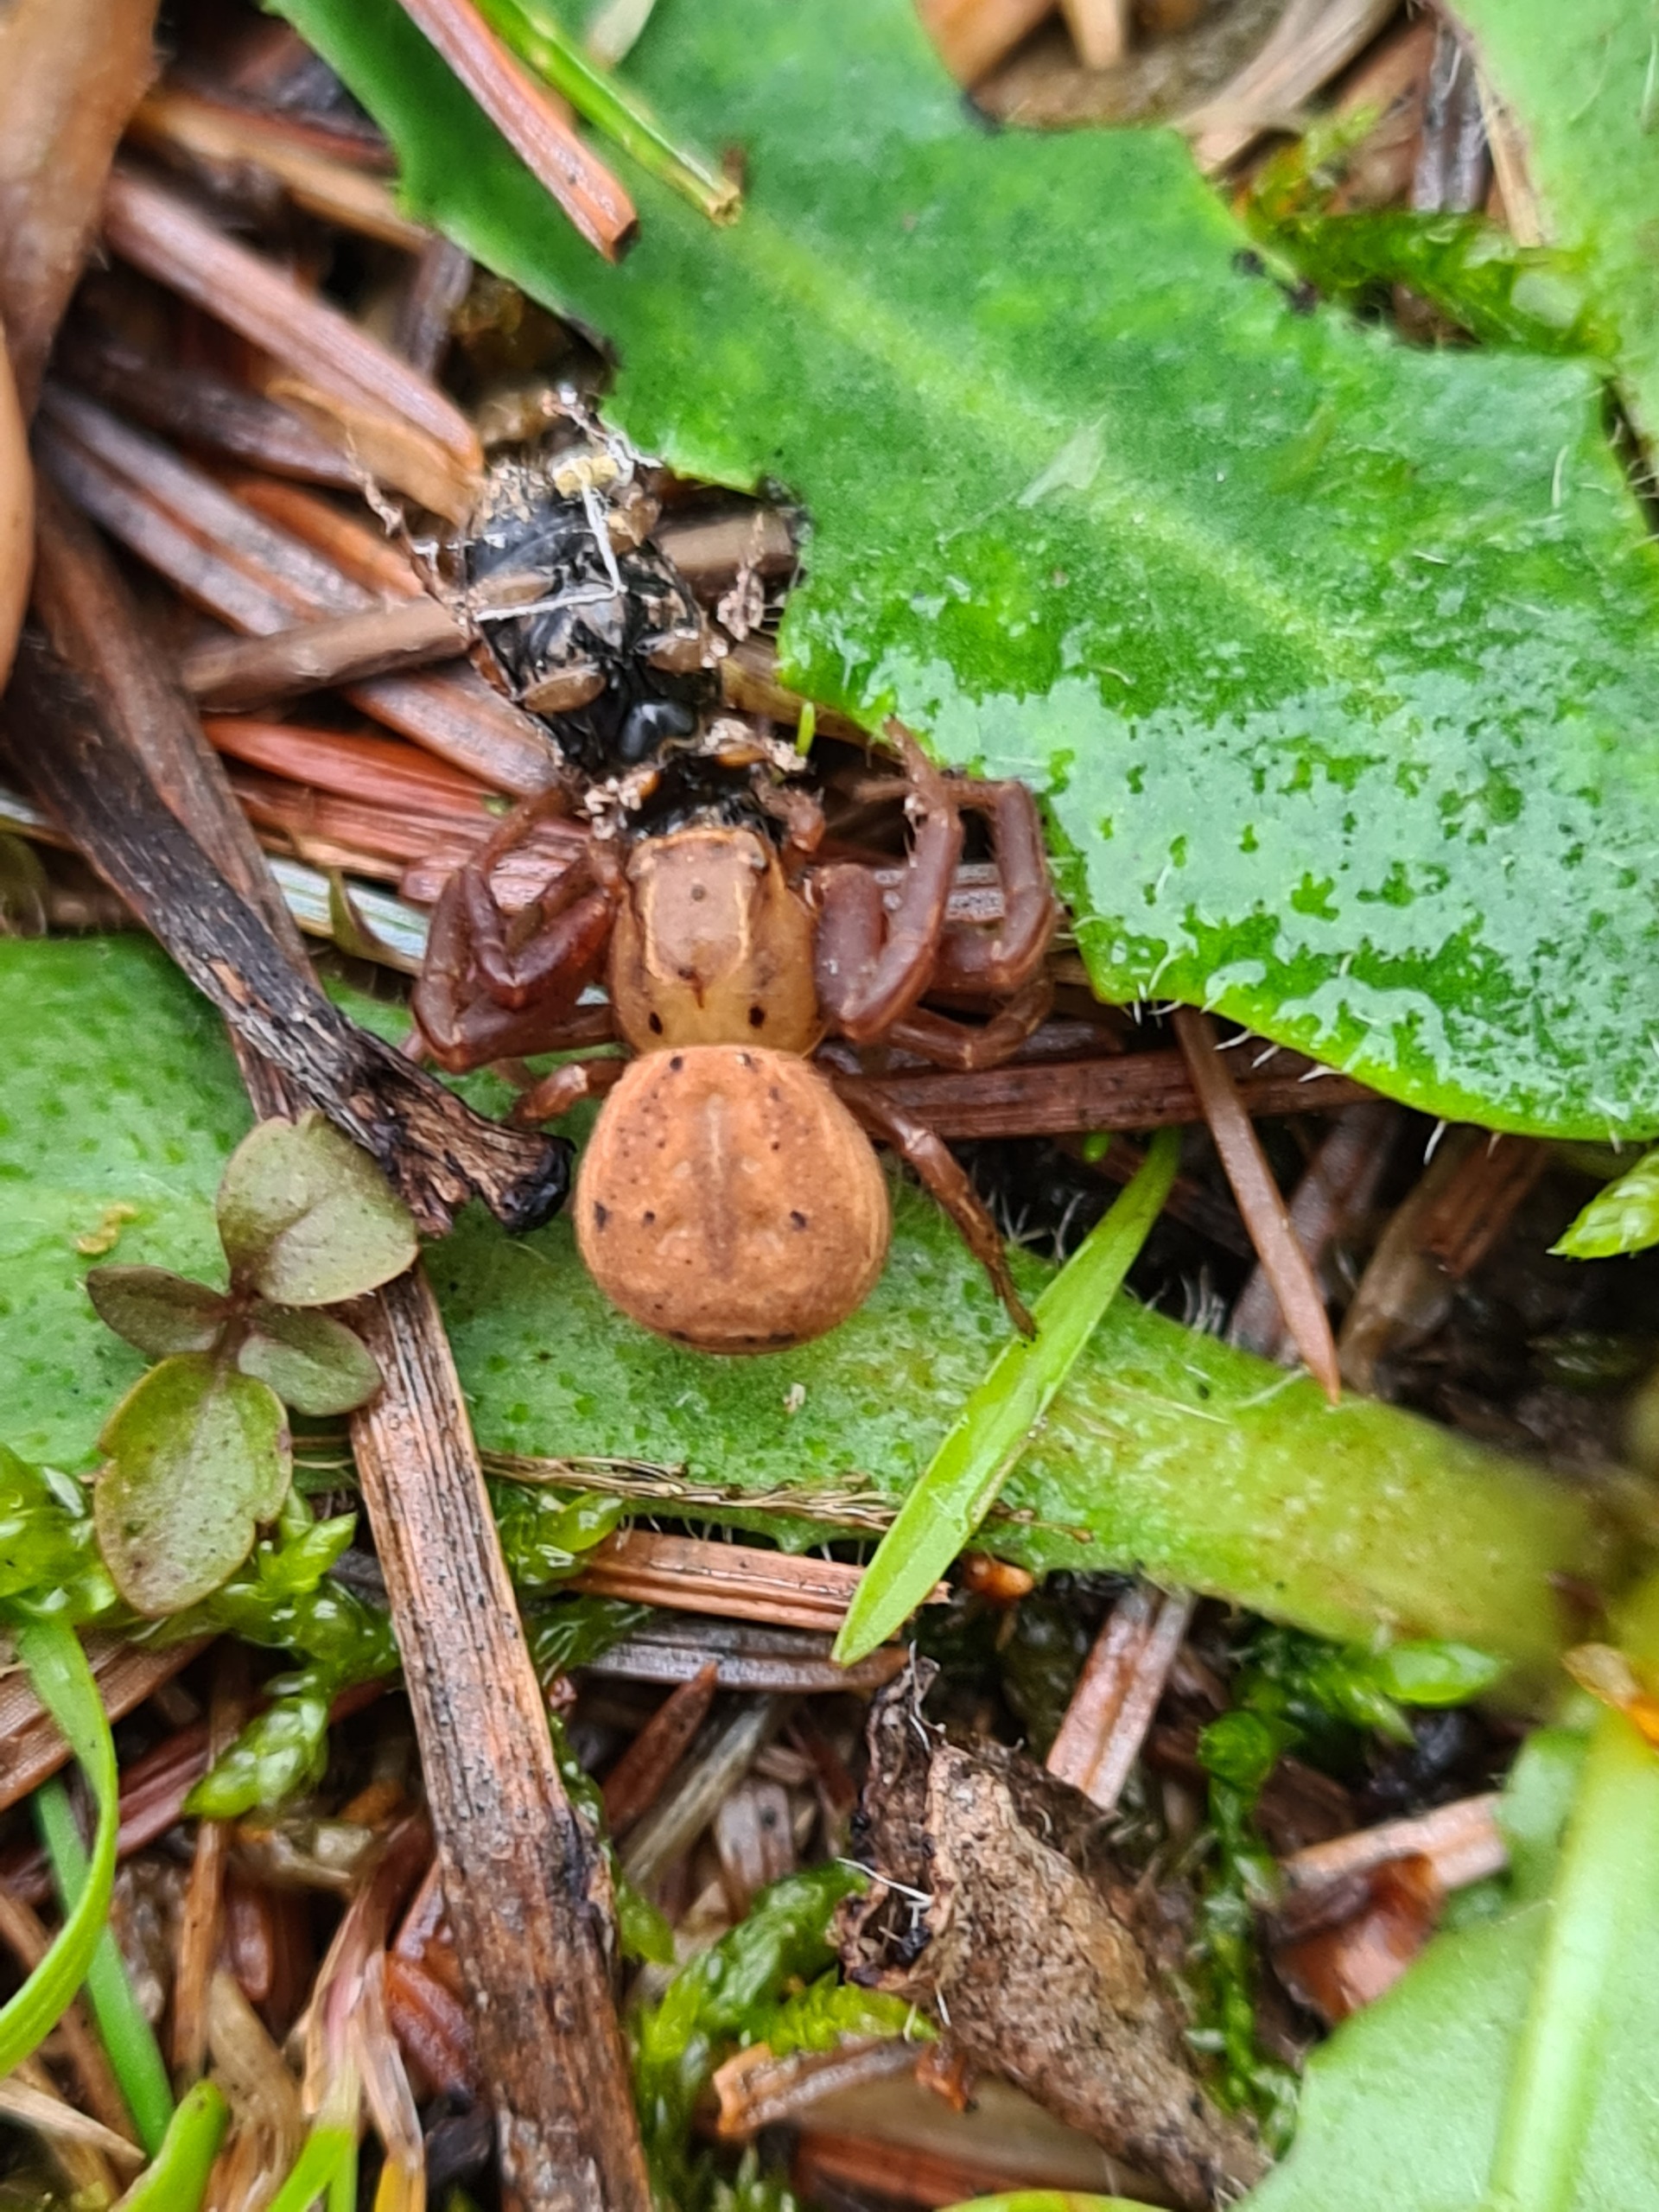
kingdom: Animalia
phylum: Arthropoda
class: Arachnida
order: Araneae
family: Thomisidae
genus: Xysticus
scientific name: Xysticus bifasciatus
